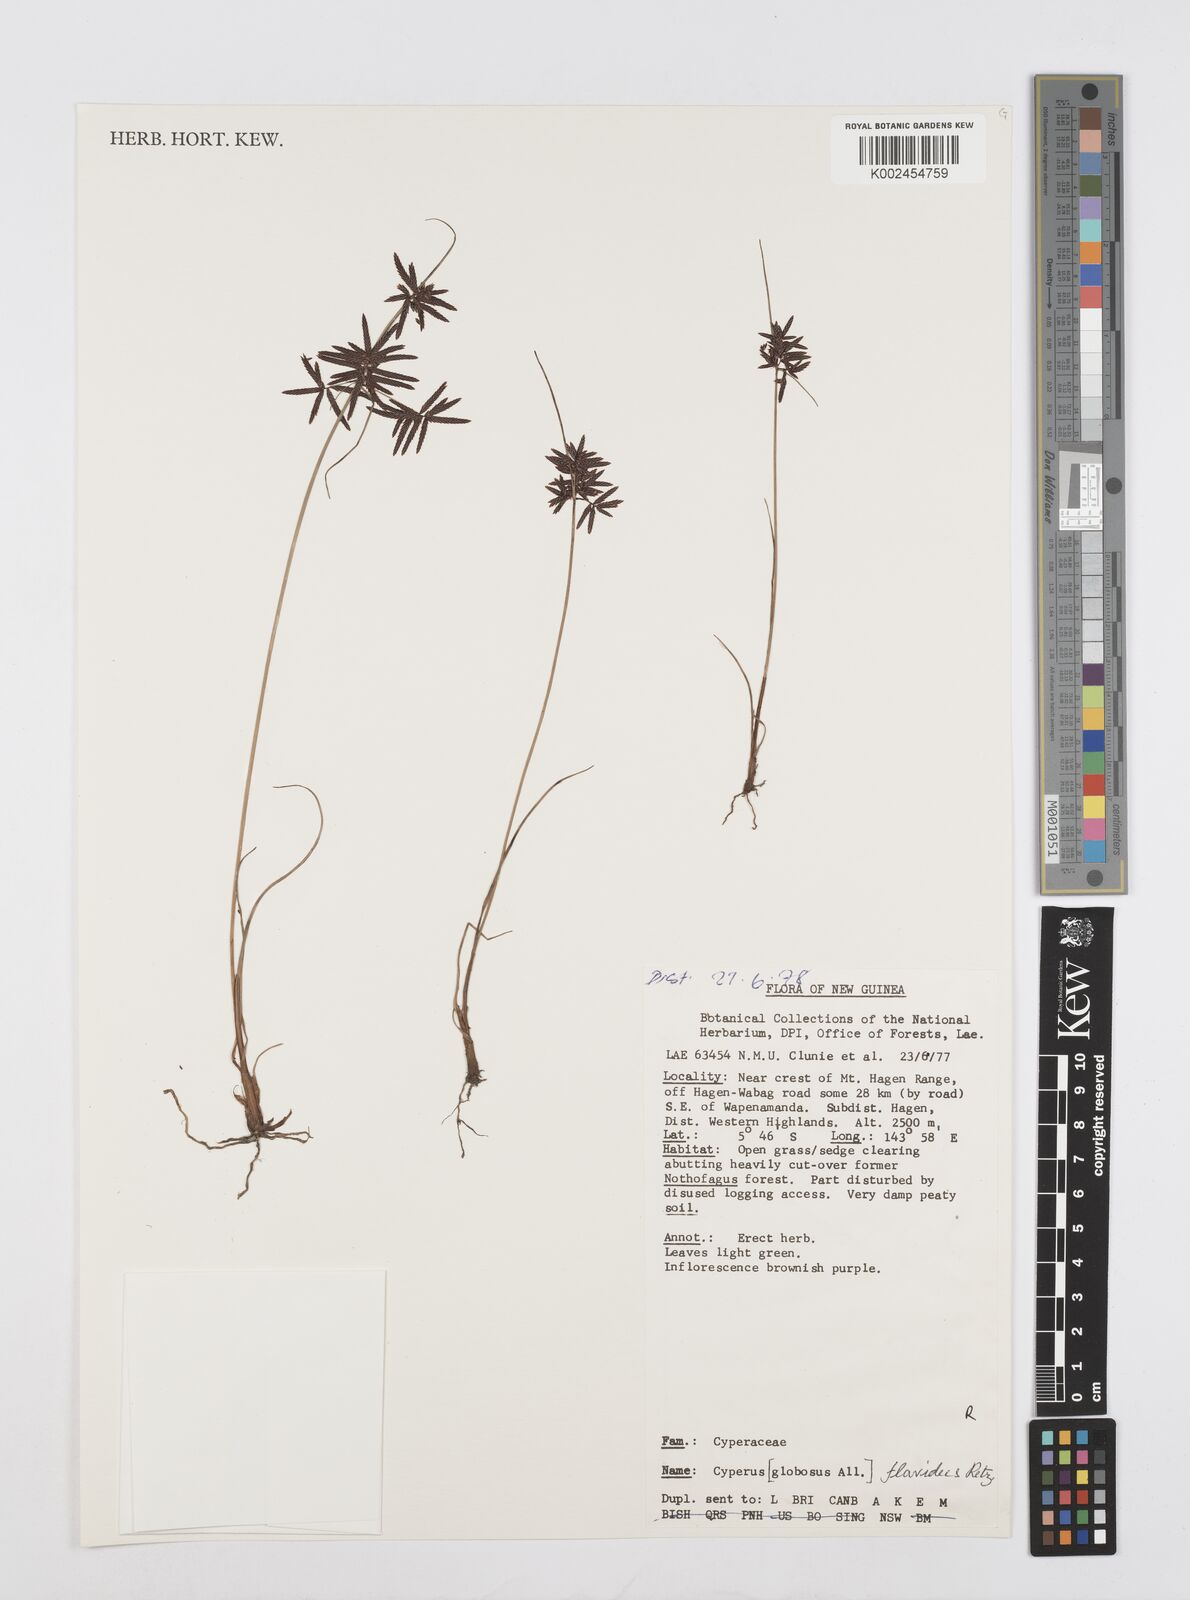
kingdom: Plantae
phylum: Tracheophyta
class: Liliopsida
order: Poales
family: Cyperaceae
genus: Cyperus
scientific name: Cyperus flavidus
